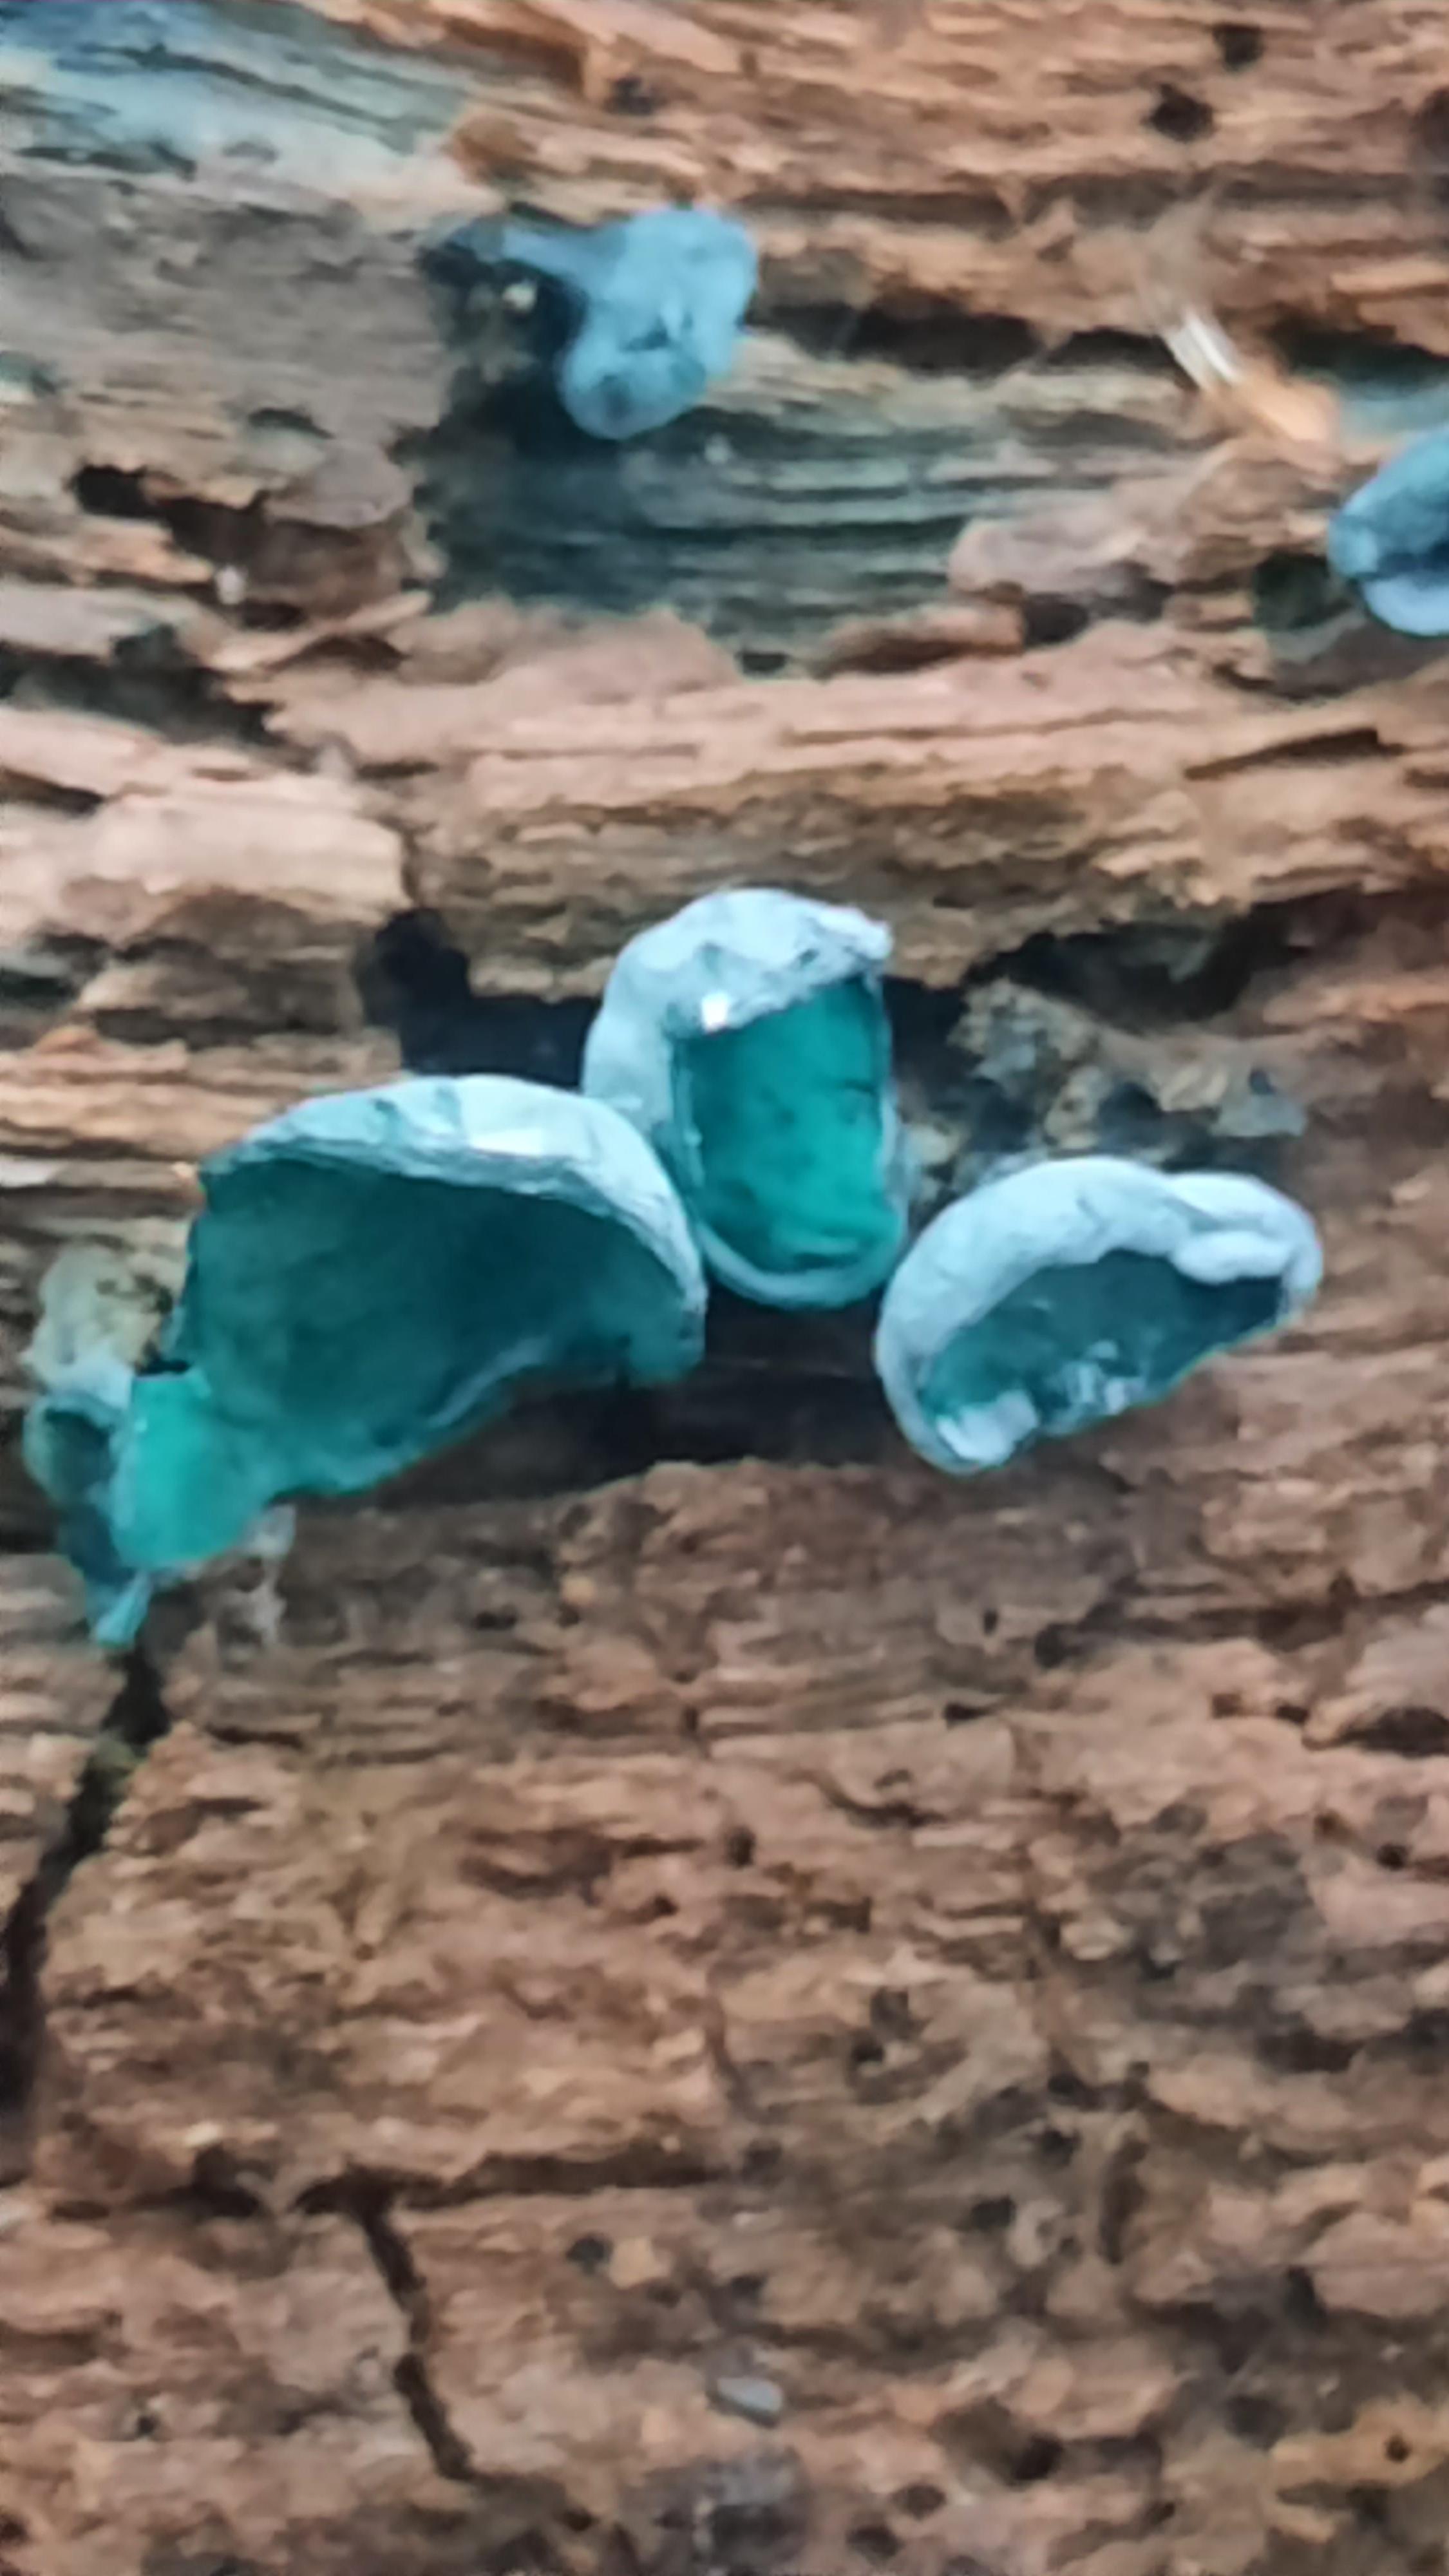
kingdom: Fungi
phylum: Ascomycota
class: Leotiomycetes
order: Helotiales
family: Chlorociboriaceae
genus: Chlorociboria
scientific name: Chlorociboria aeruginascens
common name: almindelig grønskive
